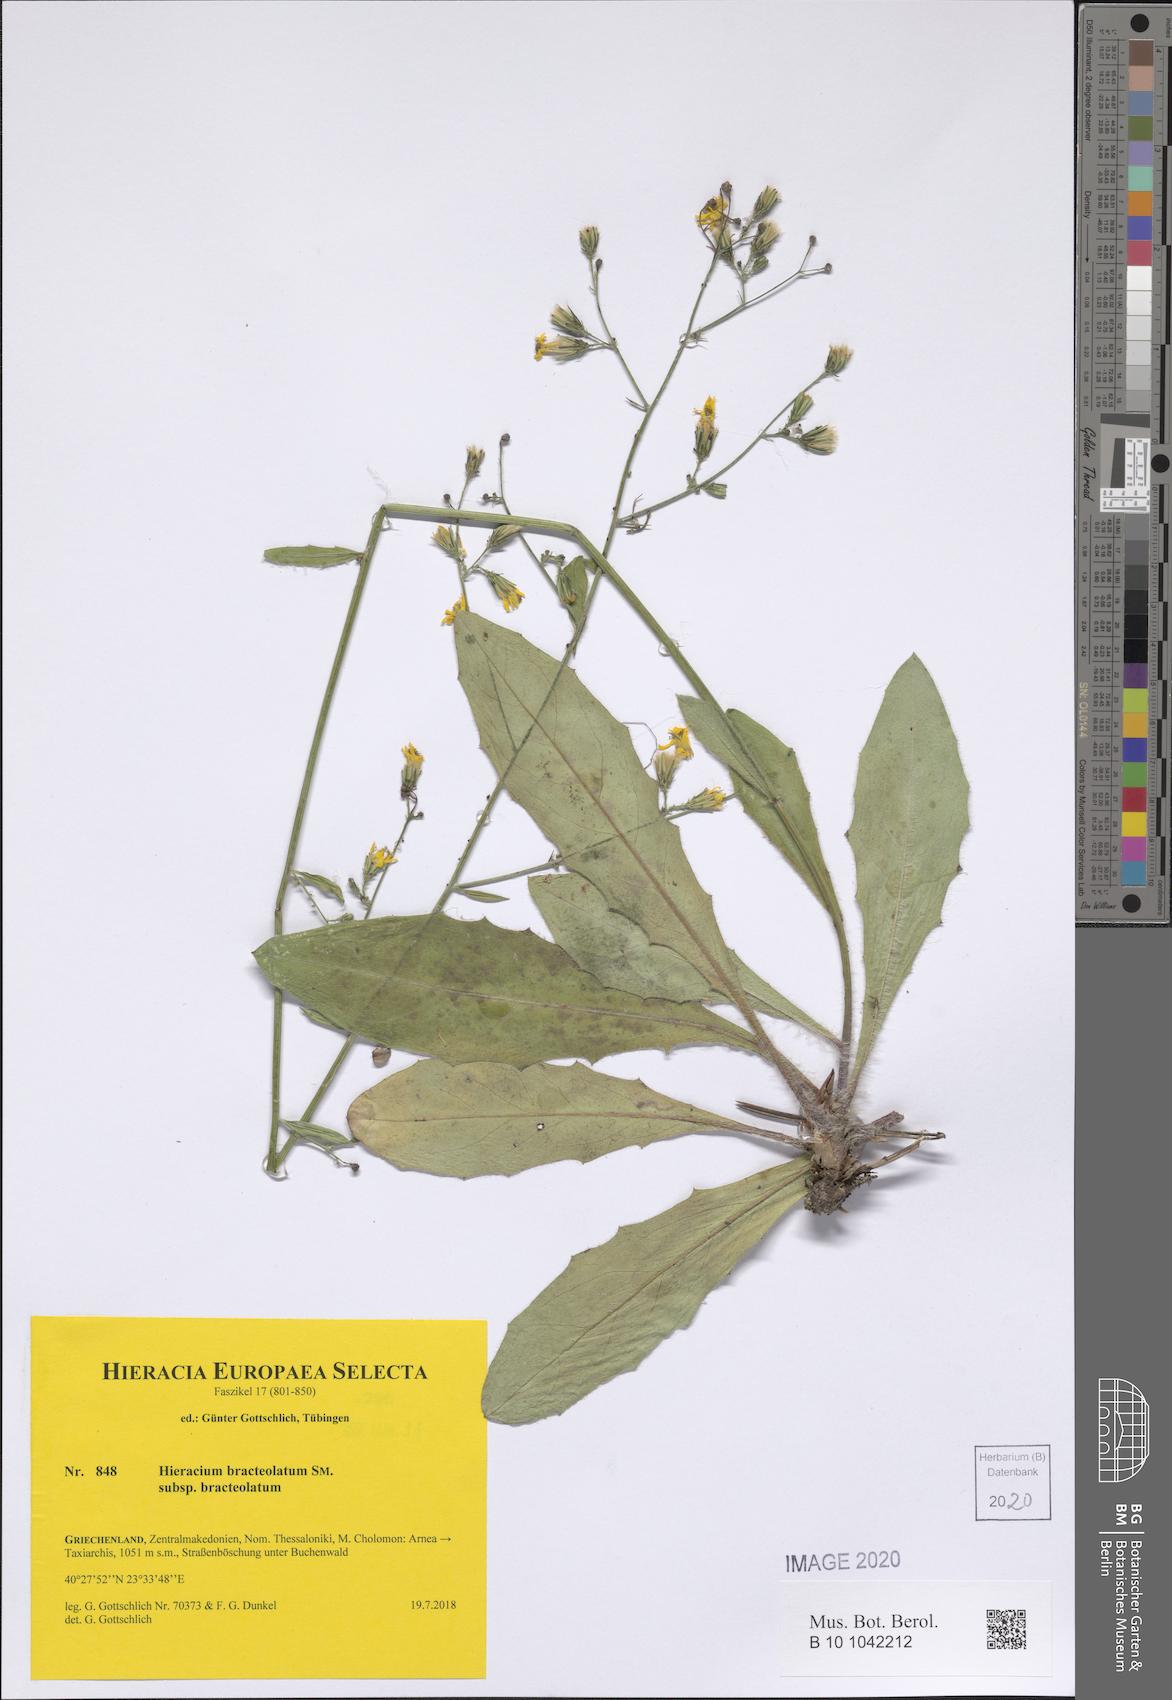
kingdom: Plantae
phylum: Tracheophyta
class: Magnoliopsida
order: Asterales
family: Asteraceae
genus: Hieracium
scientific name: Hieracium bracteolatum
